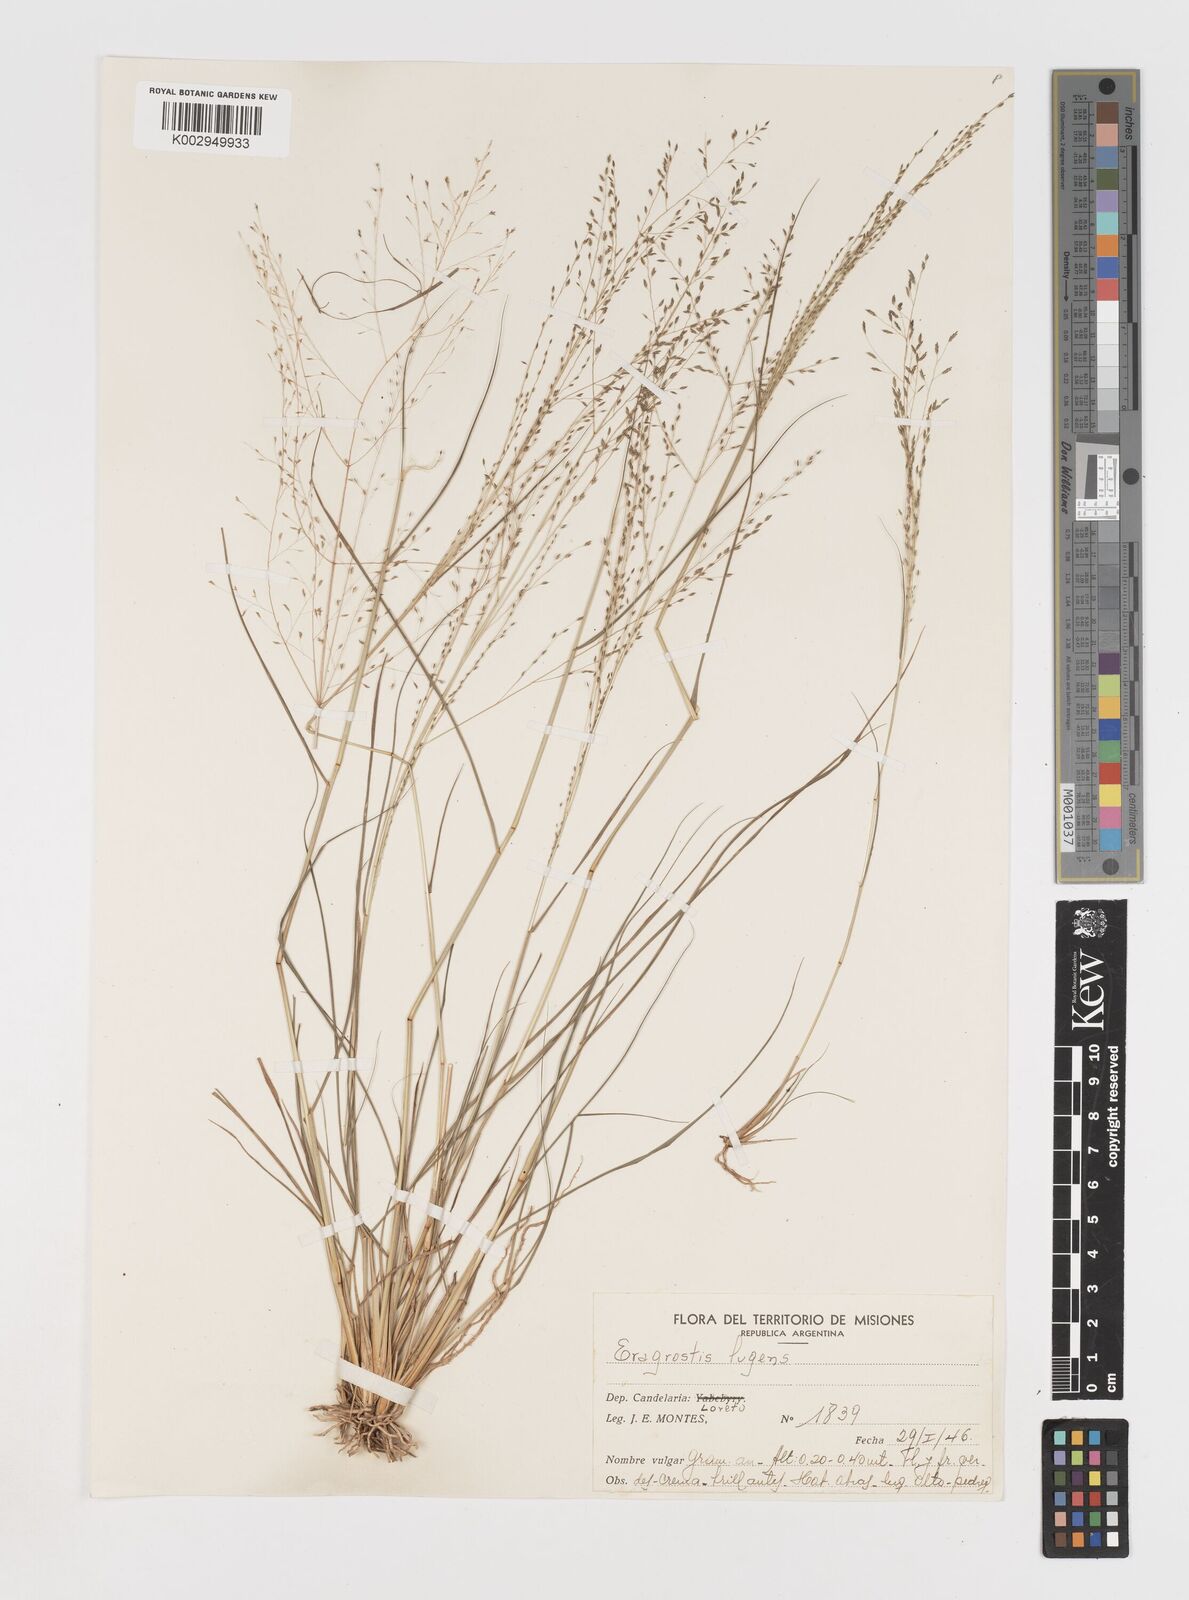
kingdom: Plantae
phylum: Tracheophyta
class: Liliopsida
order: Poales
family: Poaceae
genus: Eragrostis
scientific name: Eragrostis lugens
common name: Mourning love grass
